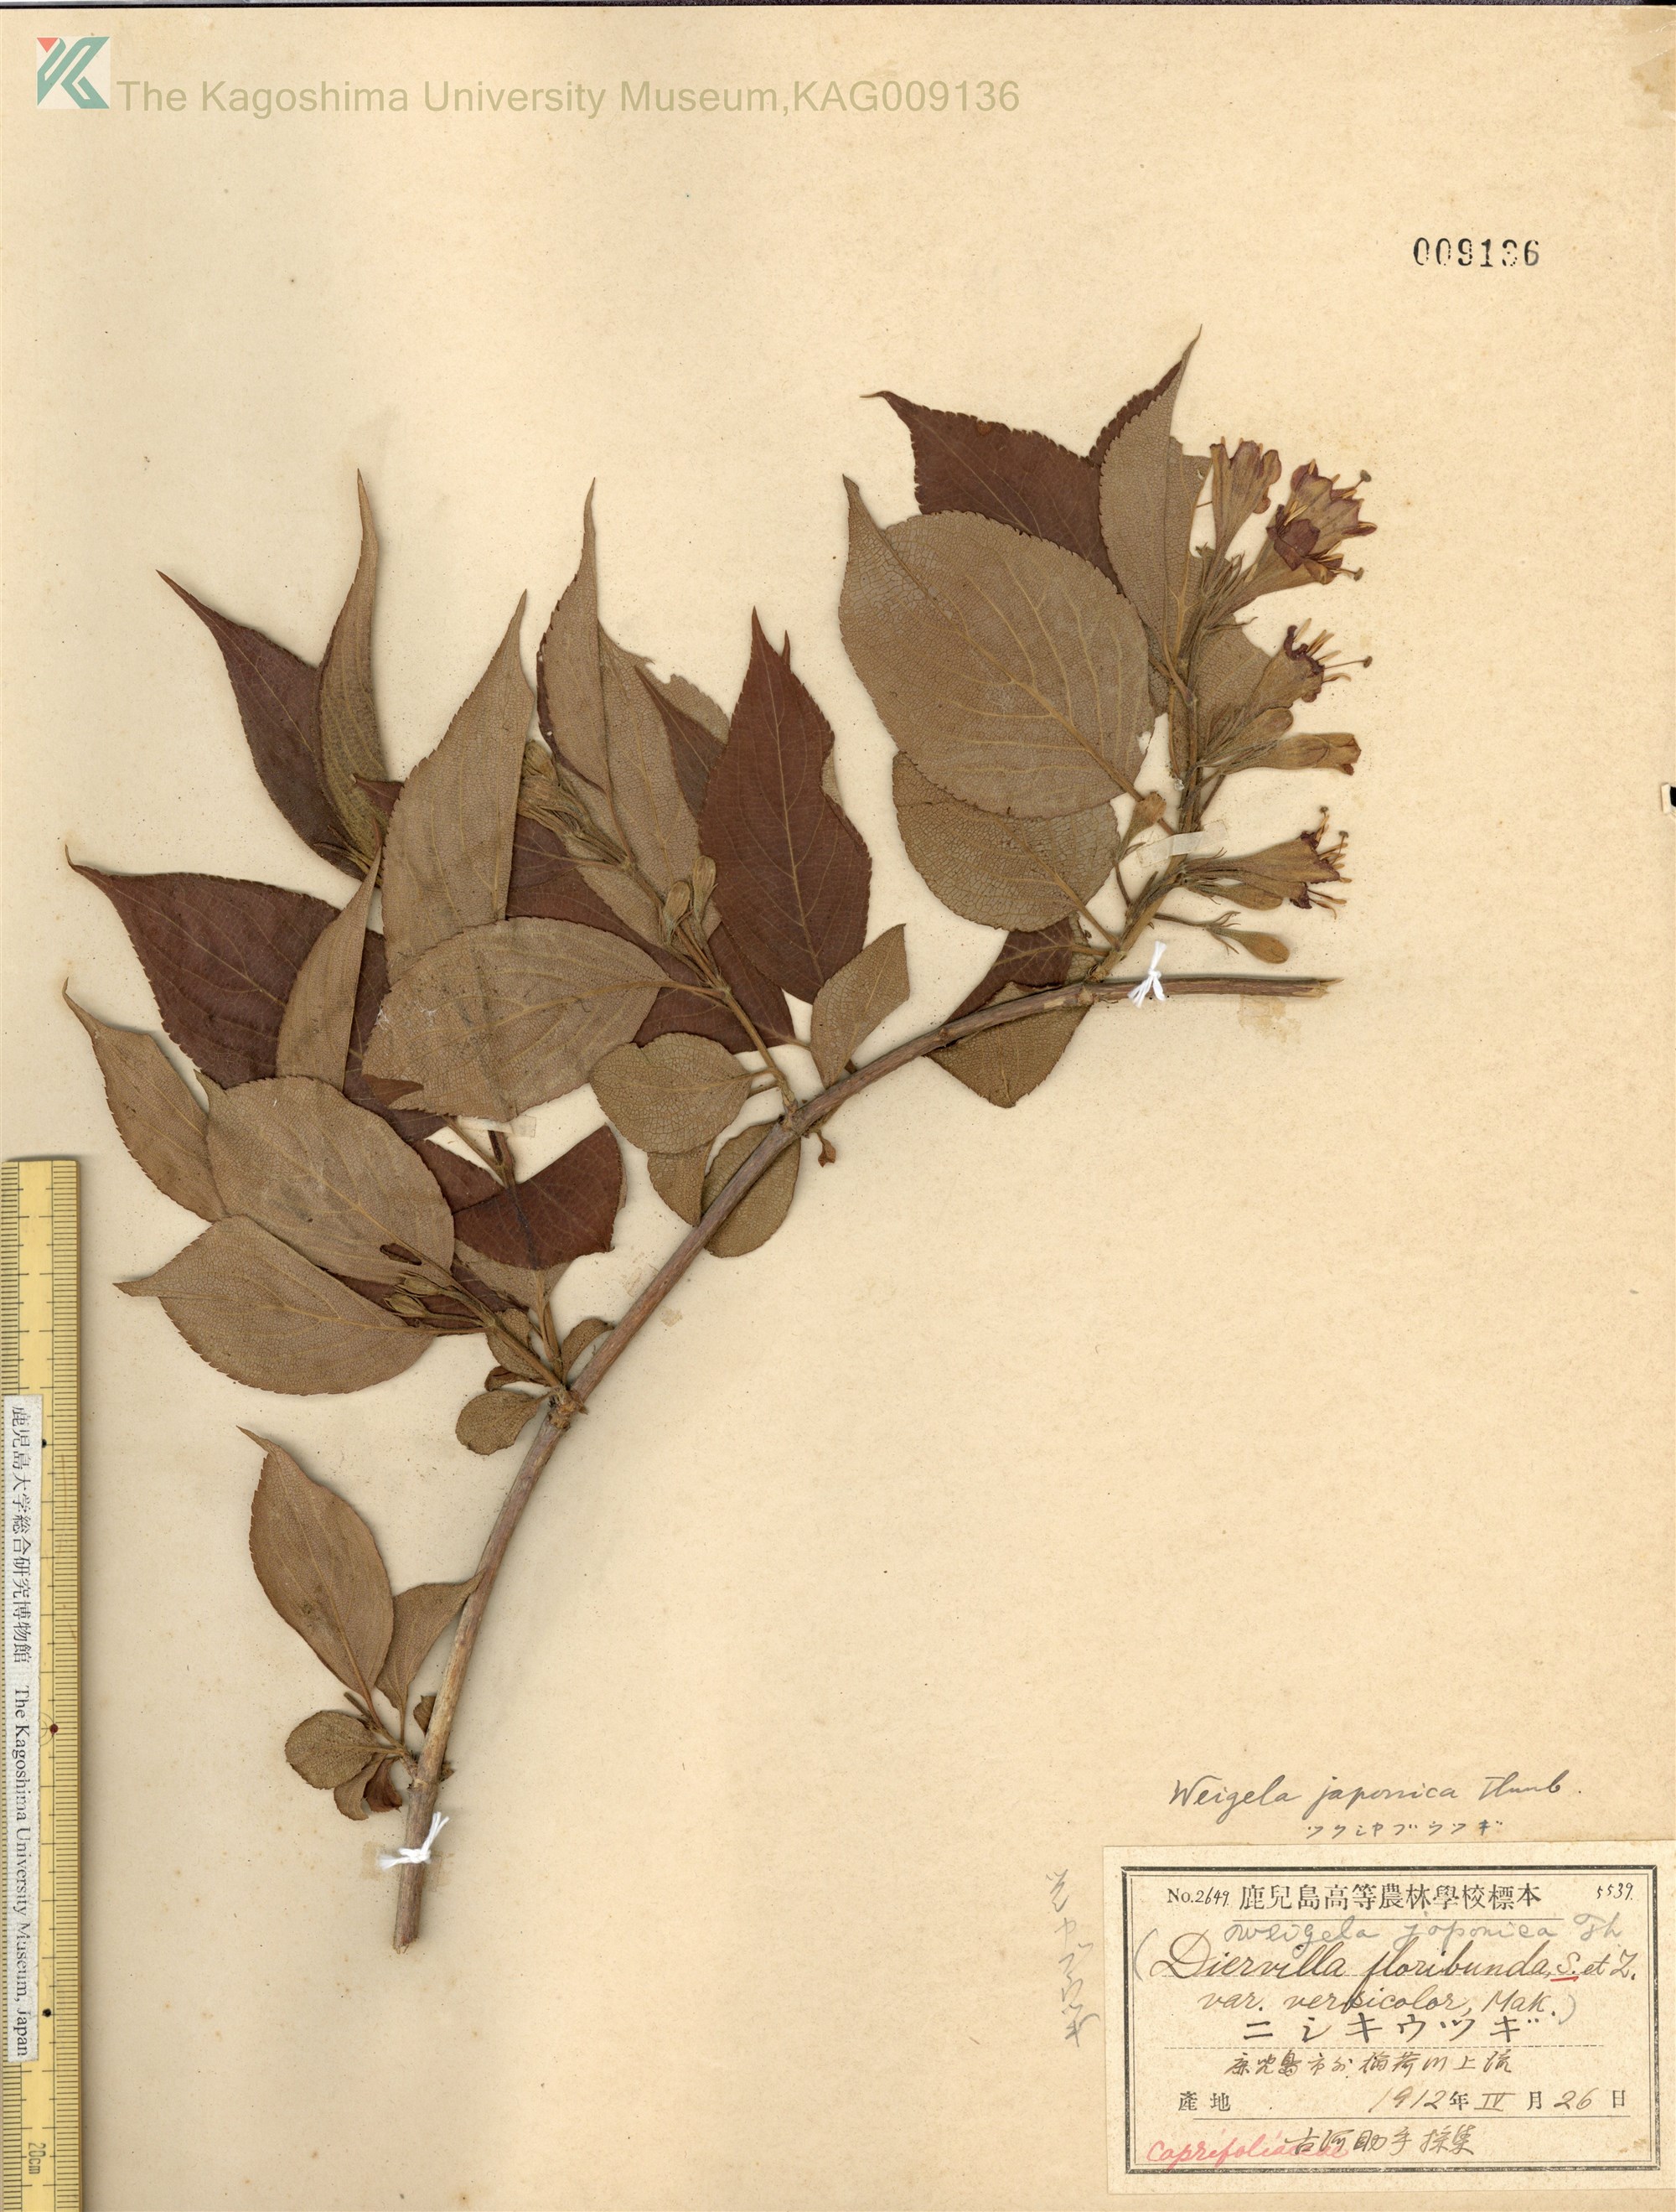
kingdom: Plantae
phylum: Tracheophyta
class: Magnoliopsida
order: Dipsacales
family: Caprifoliaceae
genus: Weigela
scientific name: Weigela japonica
